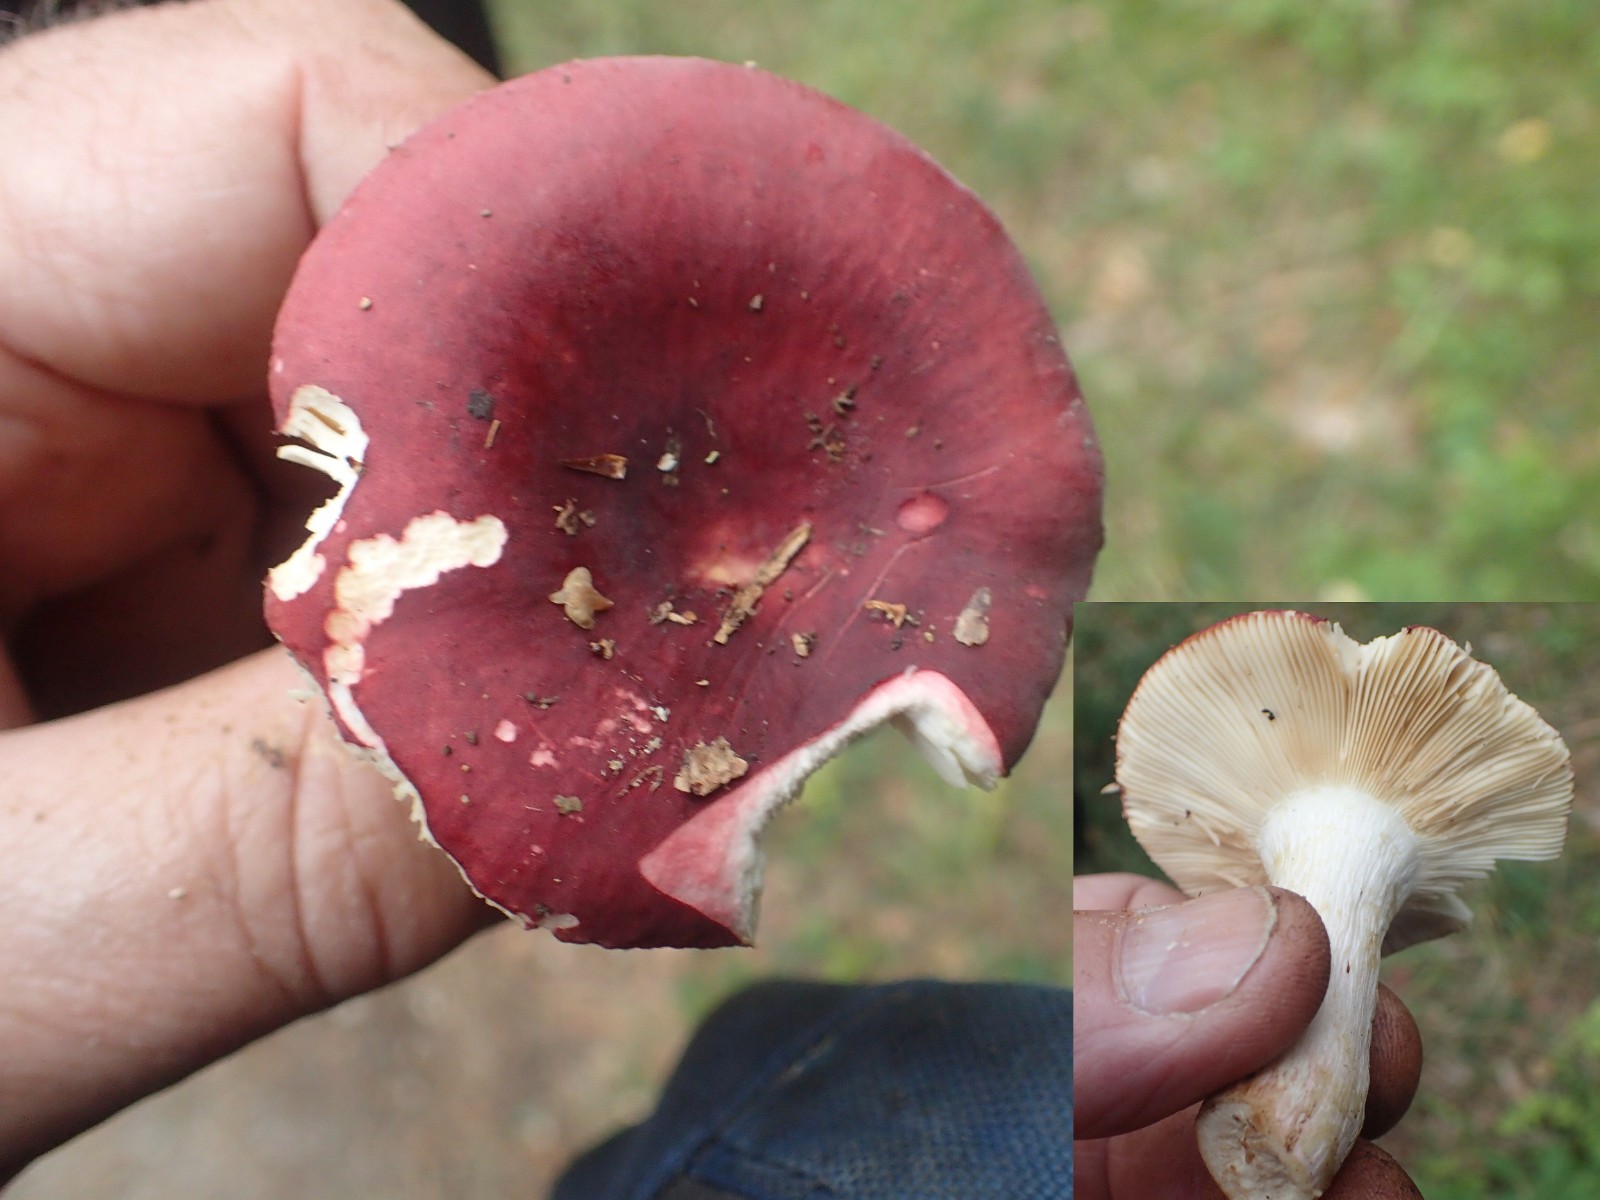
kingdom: Fungi
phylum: Basidiomycota
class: Agaricomycetes
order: Russulales
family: Russulaceae
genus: Russula
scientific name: Russula velenovskyi
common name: orangerød skørhat
